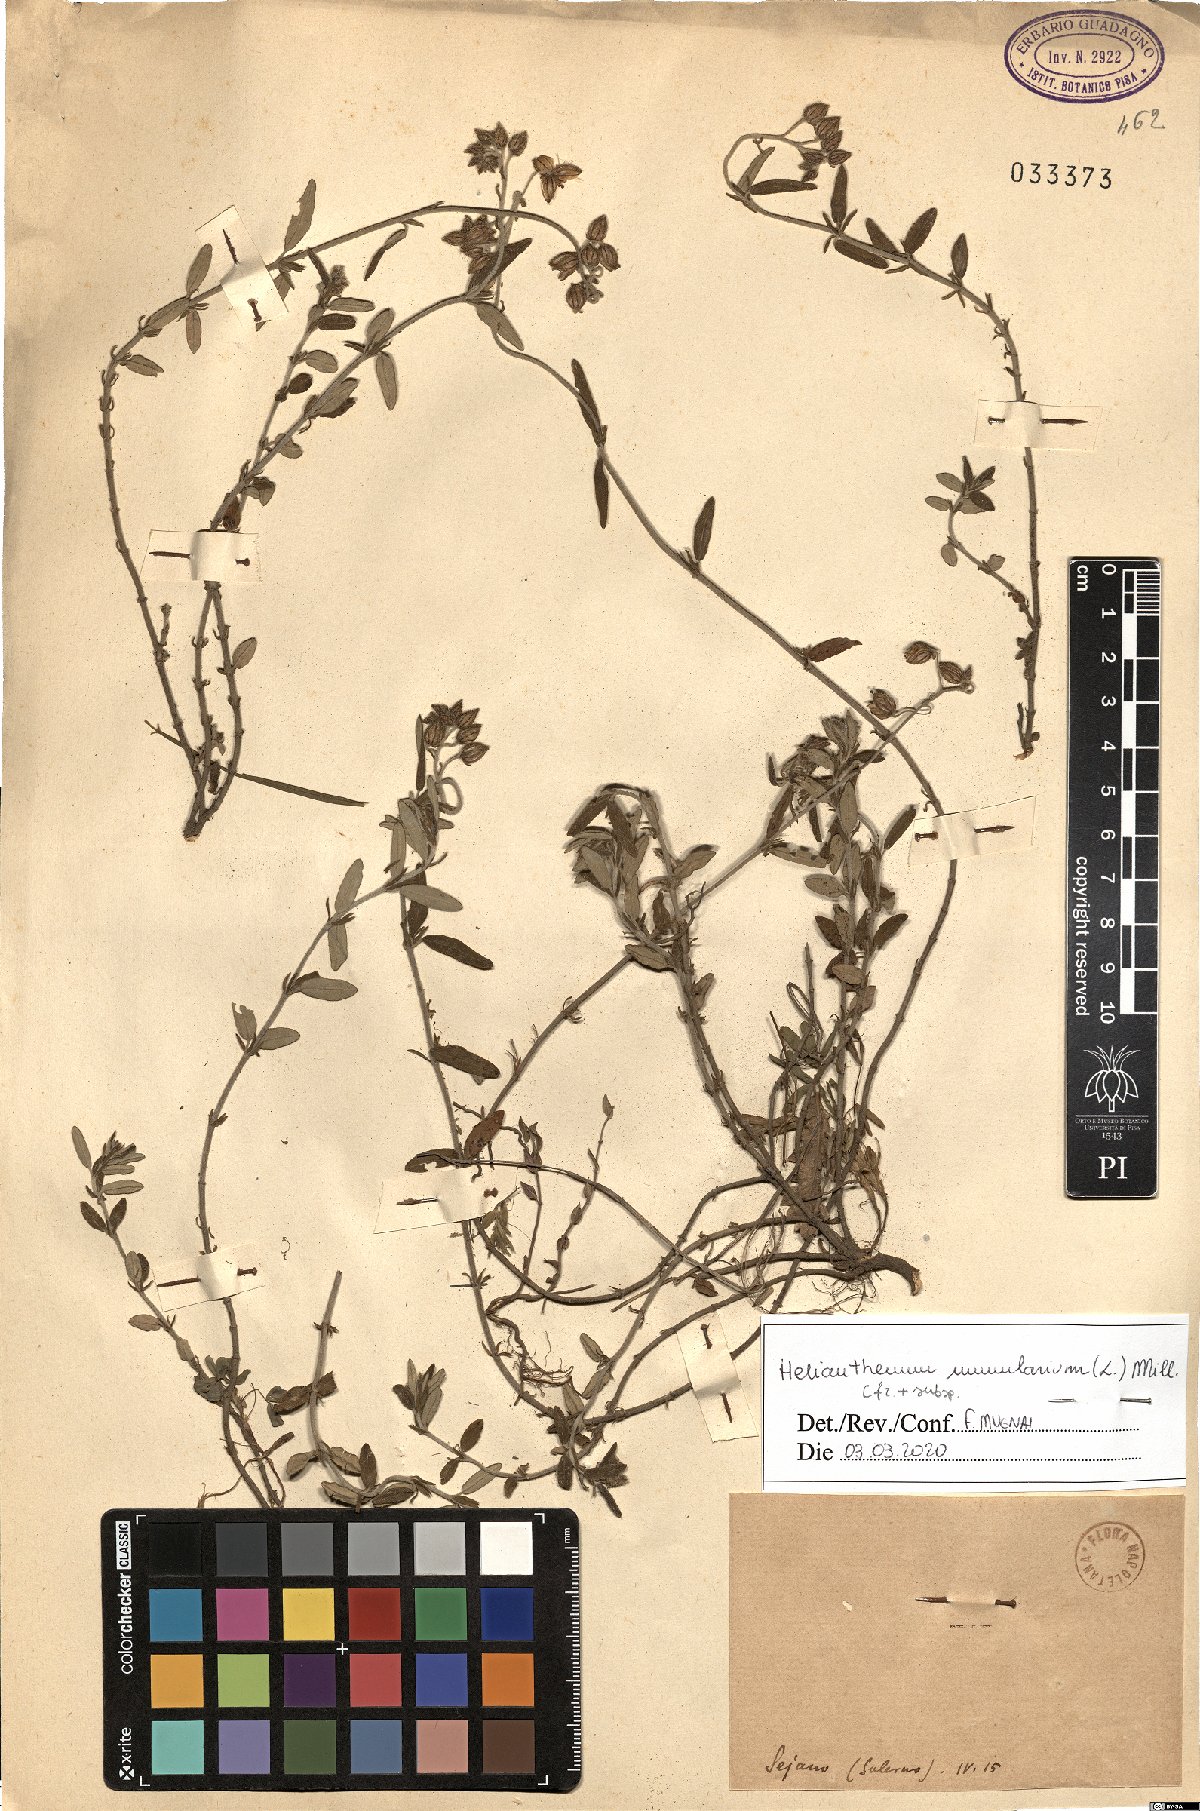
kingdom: Plantae
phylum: Tracheophyta
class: Magnoliopsida
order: Malvales
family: Cistaceae
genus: Helianthemum
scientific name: Helianthemum nummularium
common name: Common rock-rose
